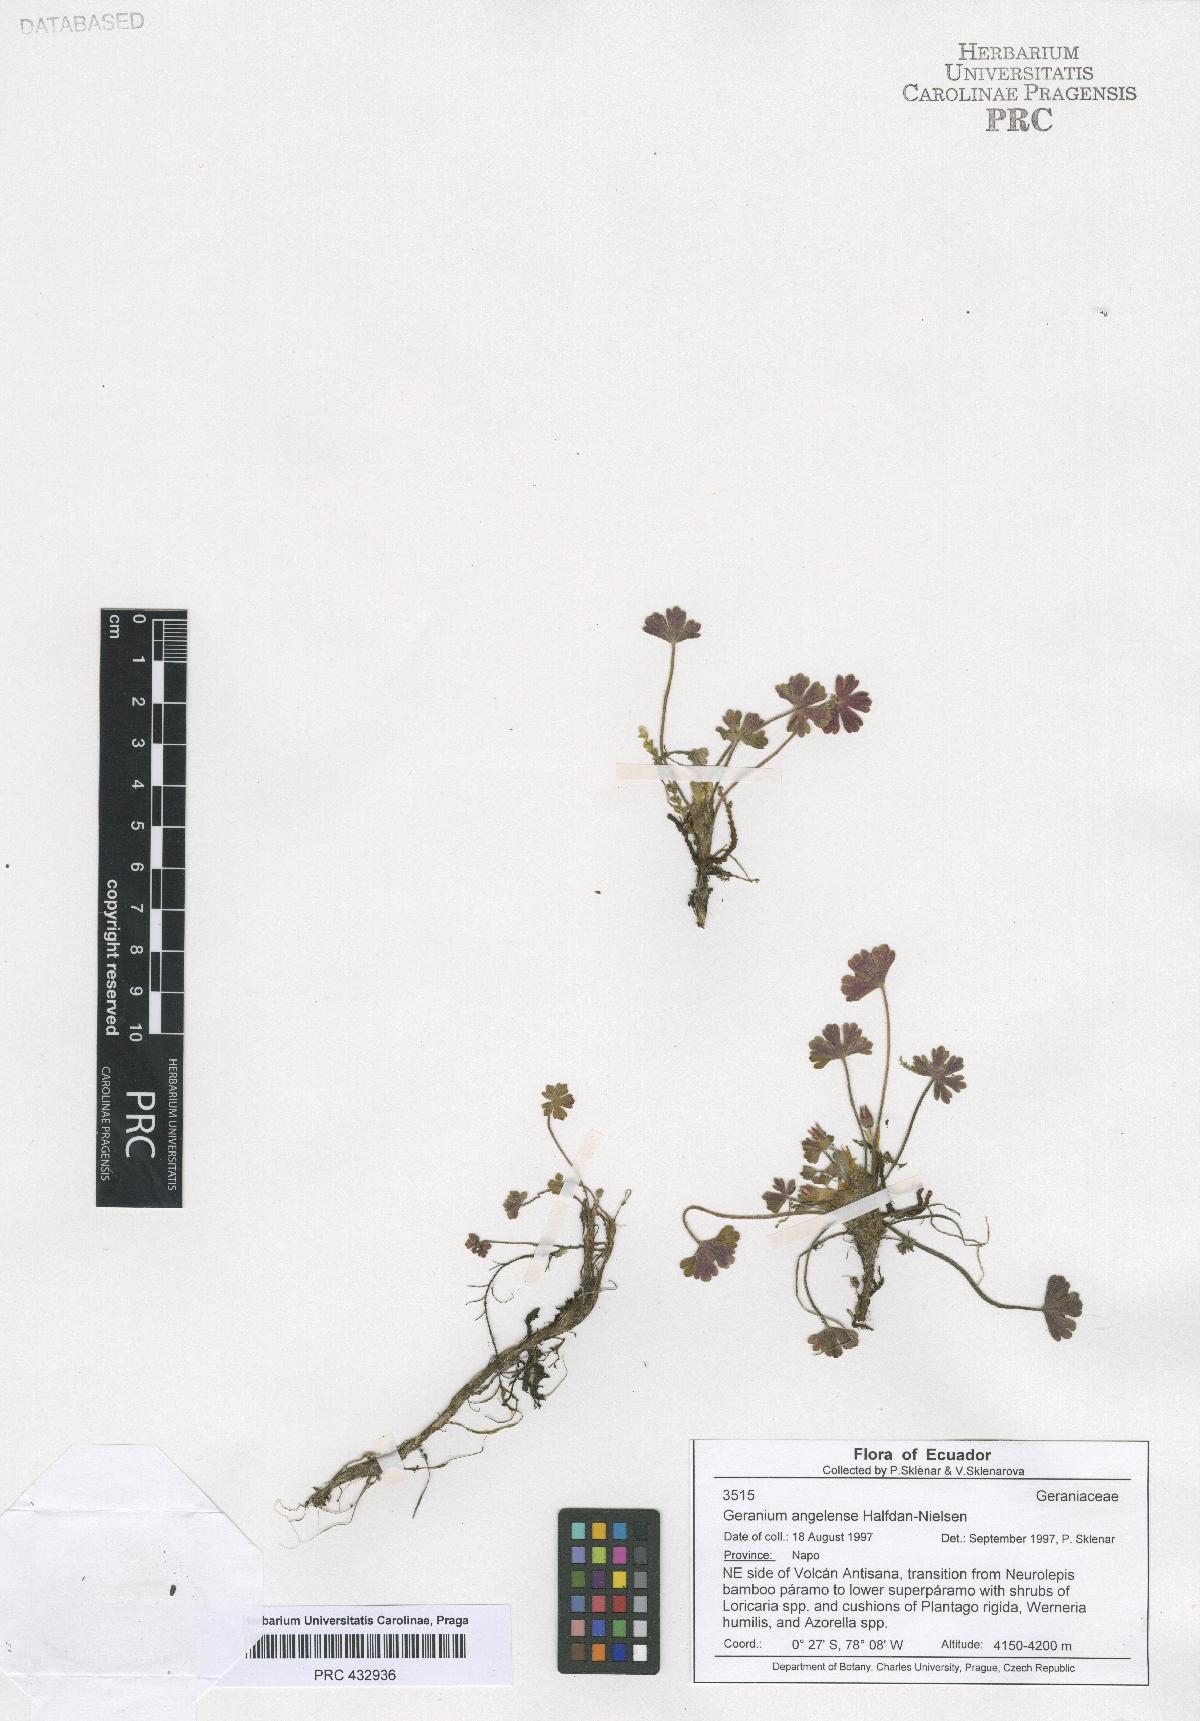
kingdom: Plantae
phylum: Tracheophyta
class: Magnoliopsida
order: Geraniales
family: Geraniaceae
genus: Geranium
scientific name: Geranium stramineum
